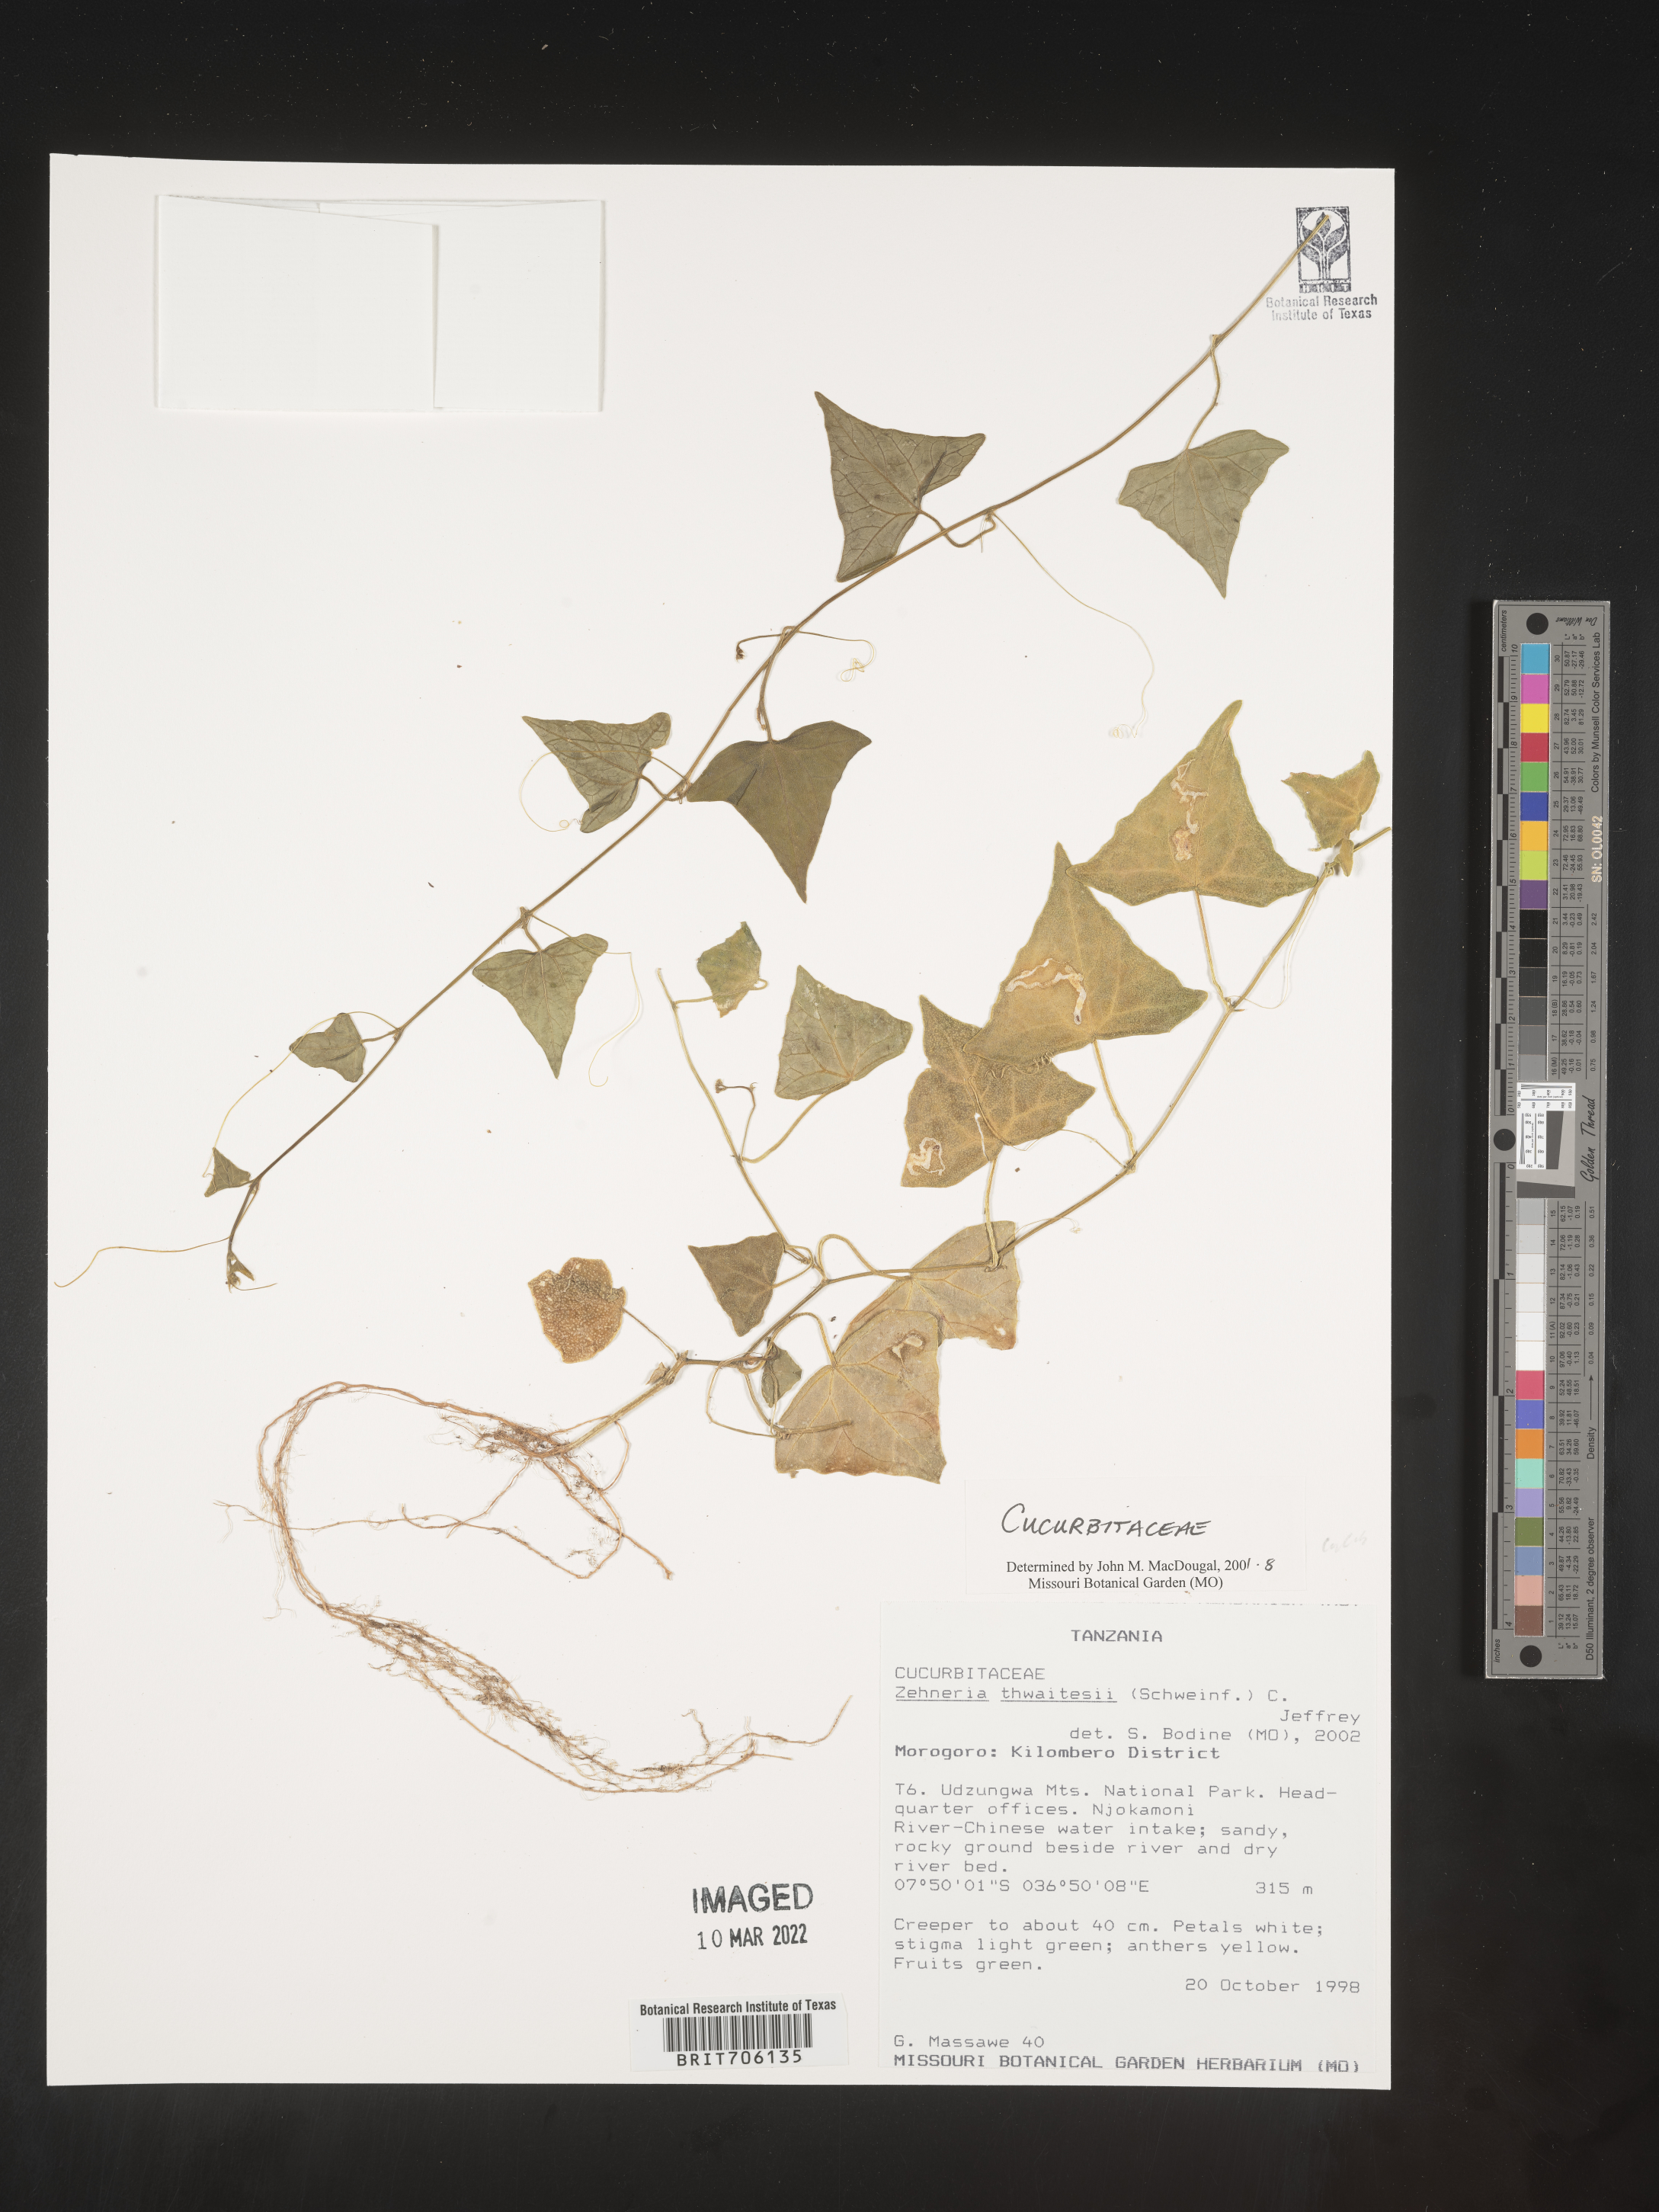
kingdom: Plantae
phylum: Tracheophyta
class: Magnoliopsida
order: Cucurbitales
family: Cucurbitaceae
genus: Zehneria
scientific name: Zehneria
